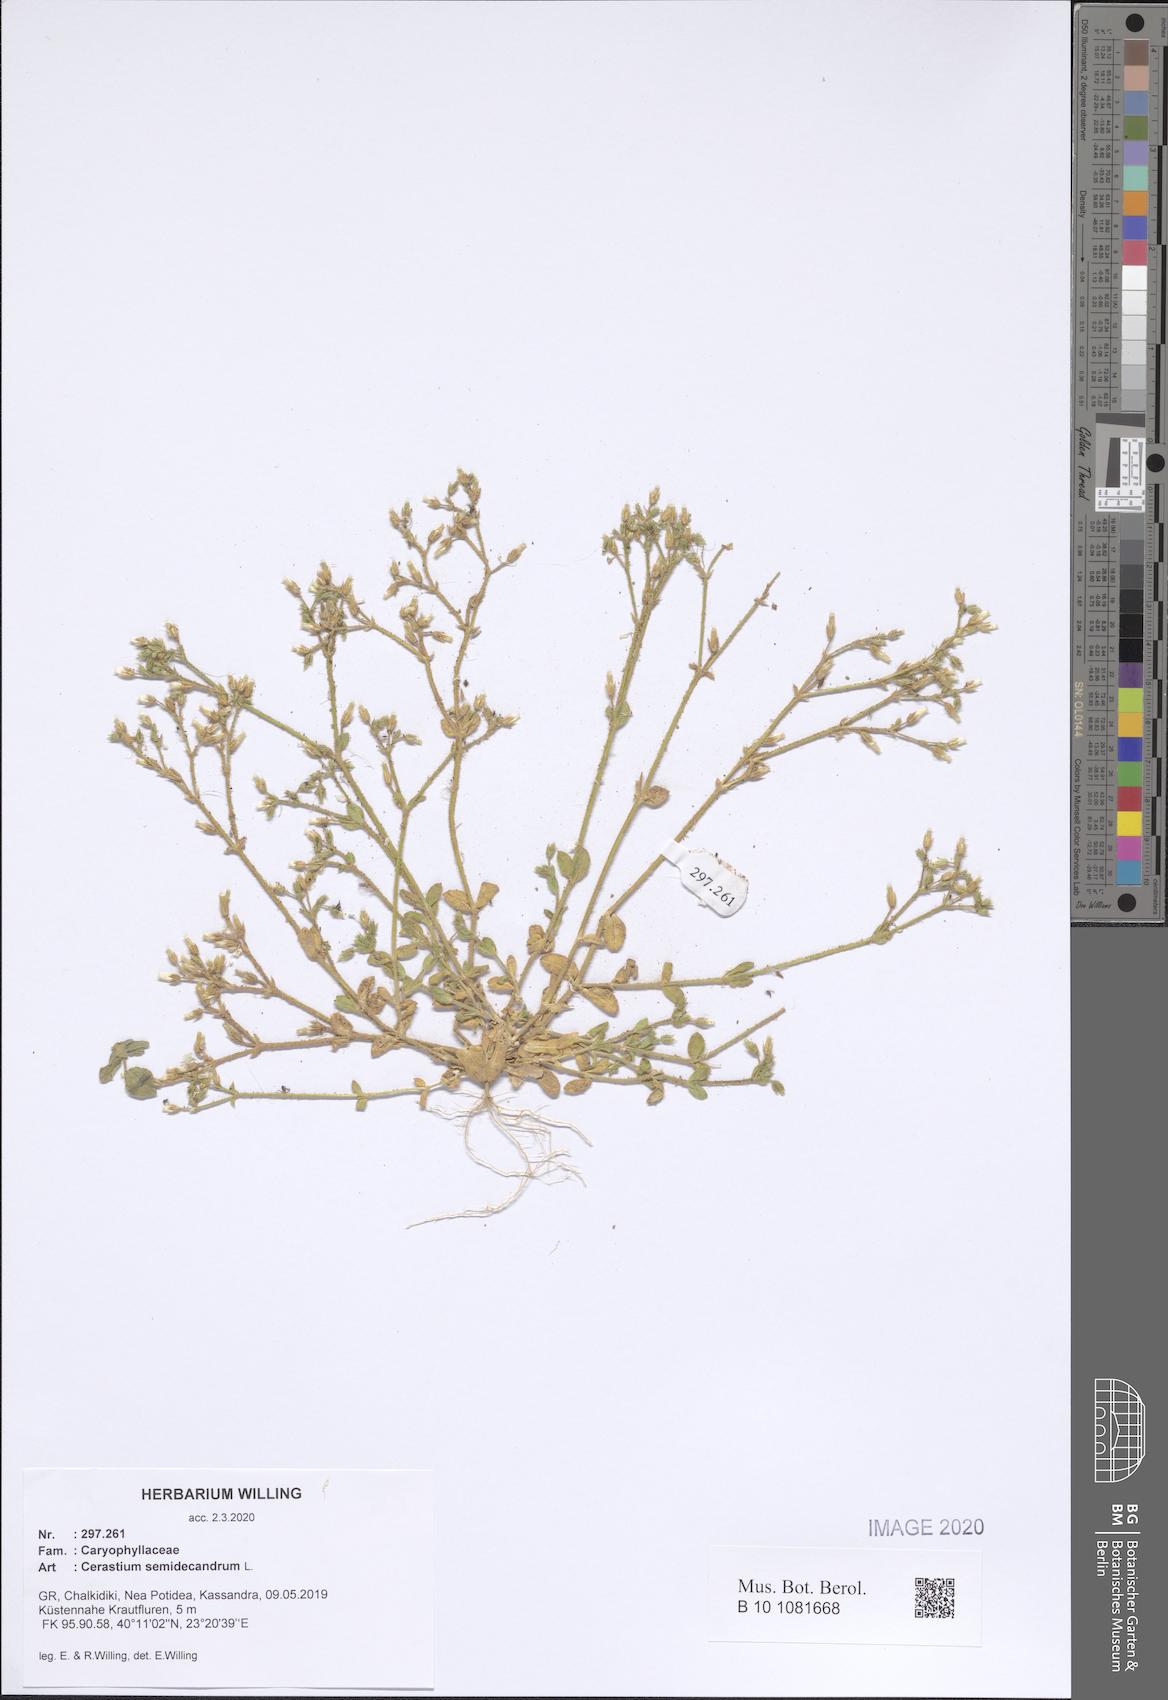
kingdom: Plantae
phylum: Tracheophyta
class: Magnoliopsida
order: Caryophyllales
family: Caryophyllaceae
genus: Cerastium
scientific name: Cerastium semidecandrum
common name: Little mouse-ear
